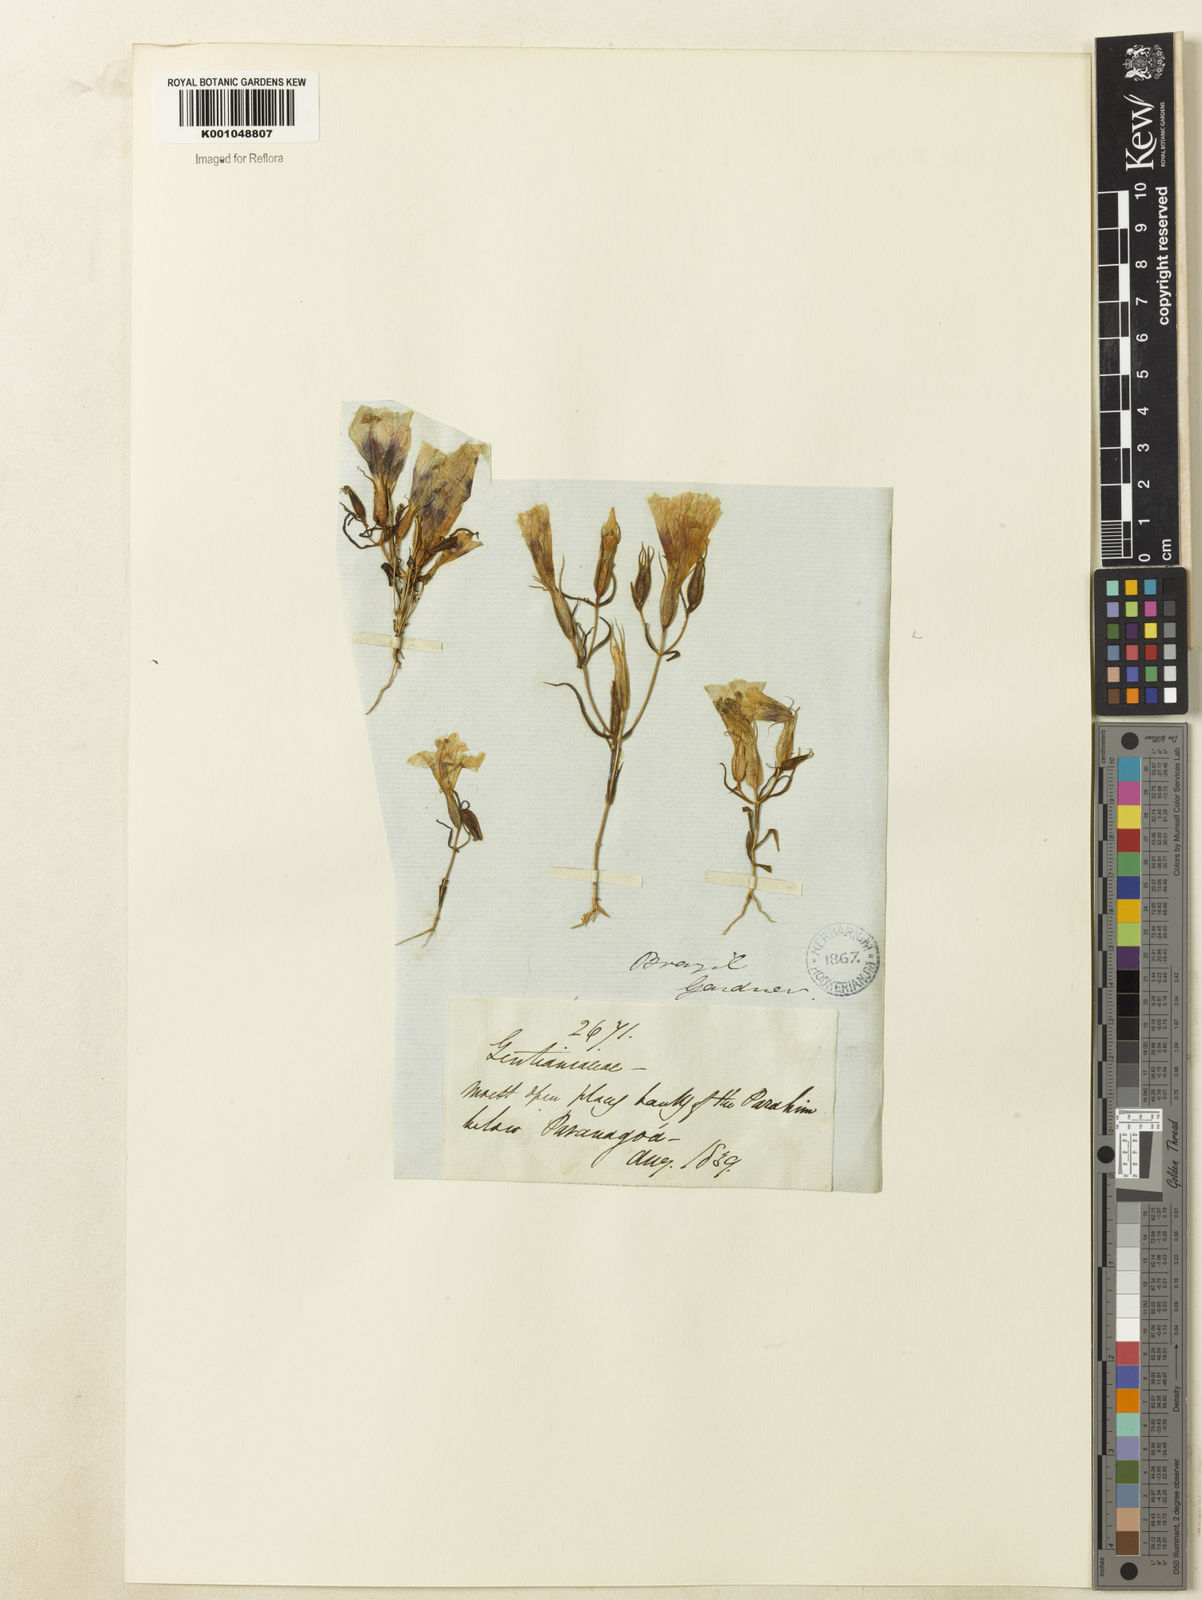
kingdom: Plantae
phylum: Tracheophyta
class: Magnoliopsida
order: Gentianales
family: Gentianaceae
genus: Schultesia
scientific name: Schultesia angustifolia
